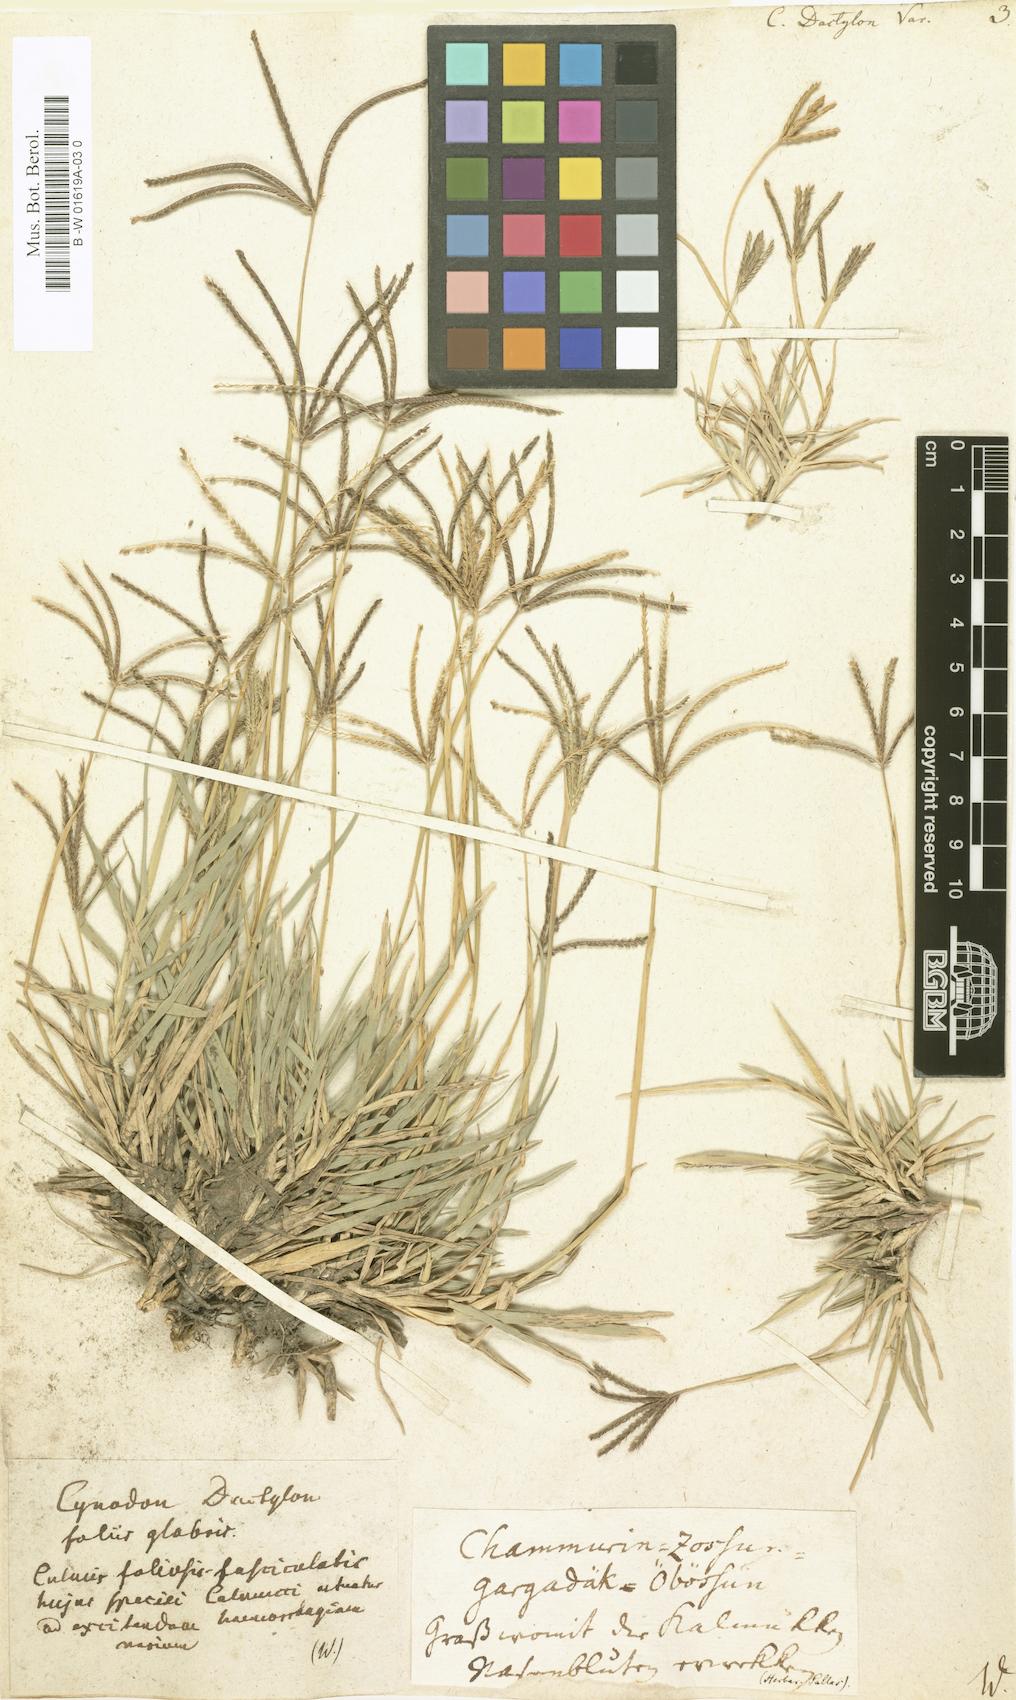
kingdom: Plantae
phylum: Tracheophyta
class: Liliopsida
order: Poales
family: Poaceae
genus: Cynodon
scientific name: Cynodon dactylon
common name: Bermuda grass
